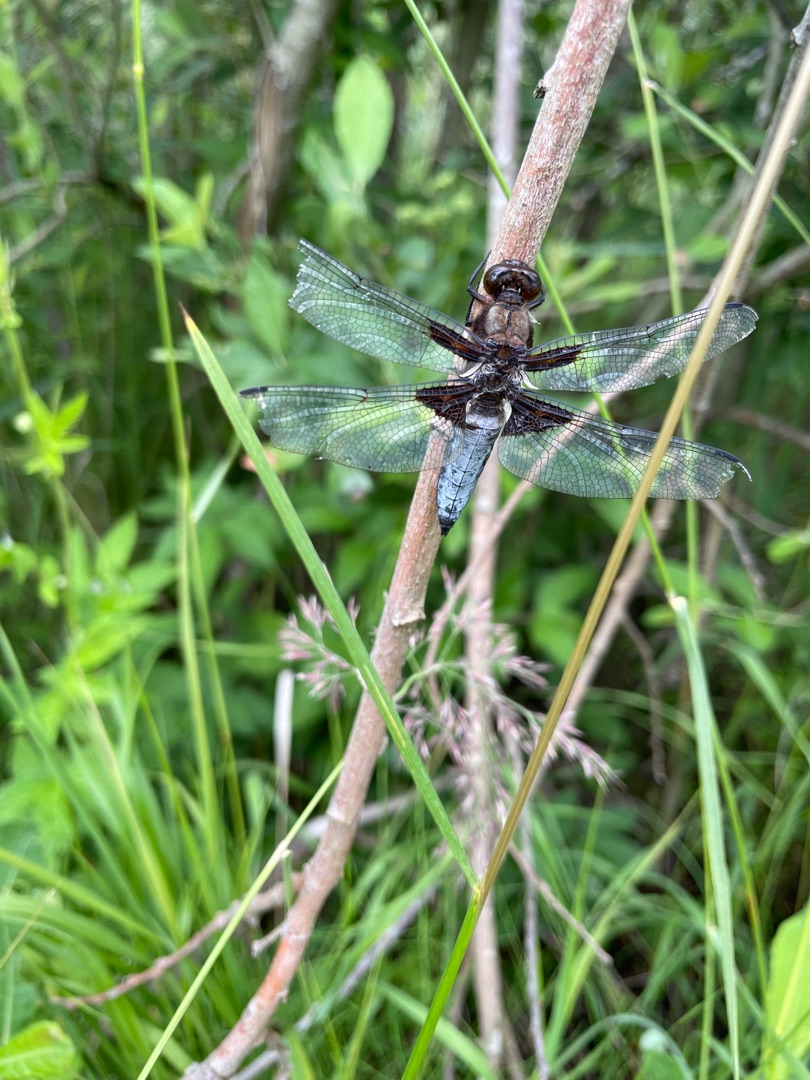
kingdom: Animalia
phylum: Arthropoda
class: Insecta
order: Odonata
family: Libellulidae
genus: Libellula
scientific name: Libellula depressa
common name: Blå libel
